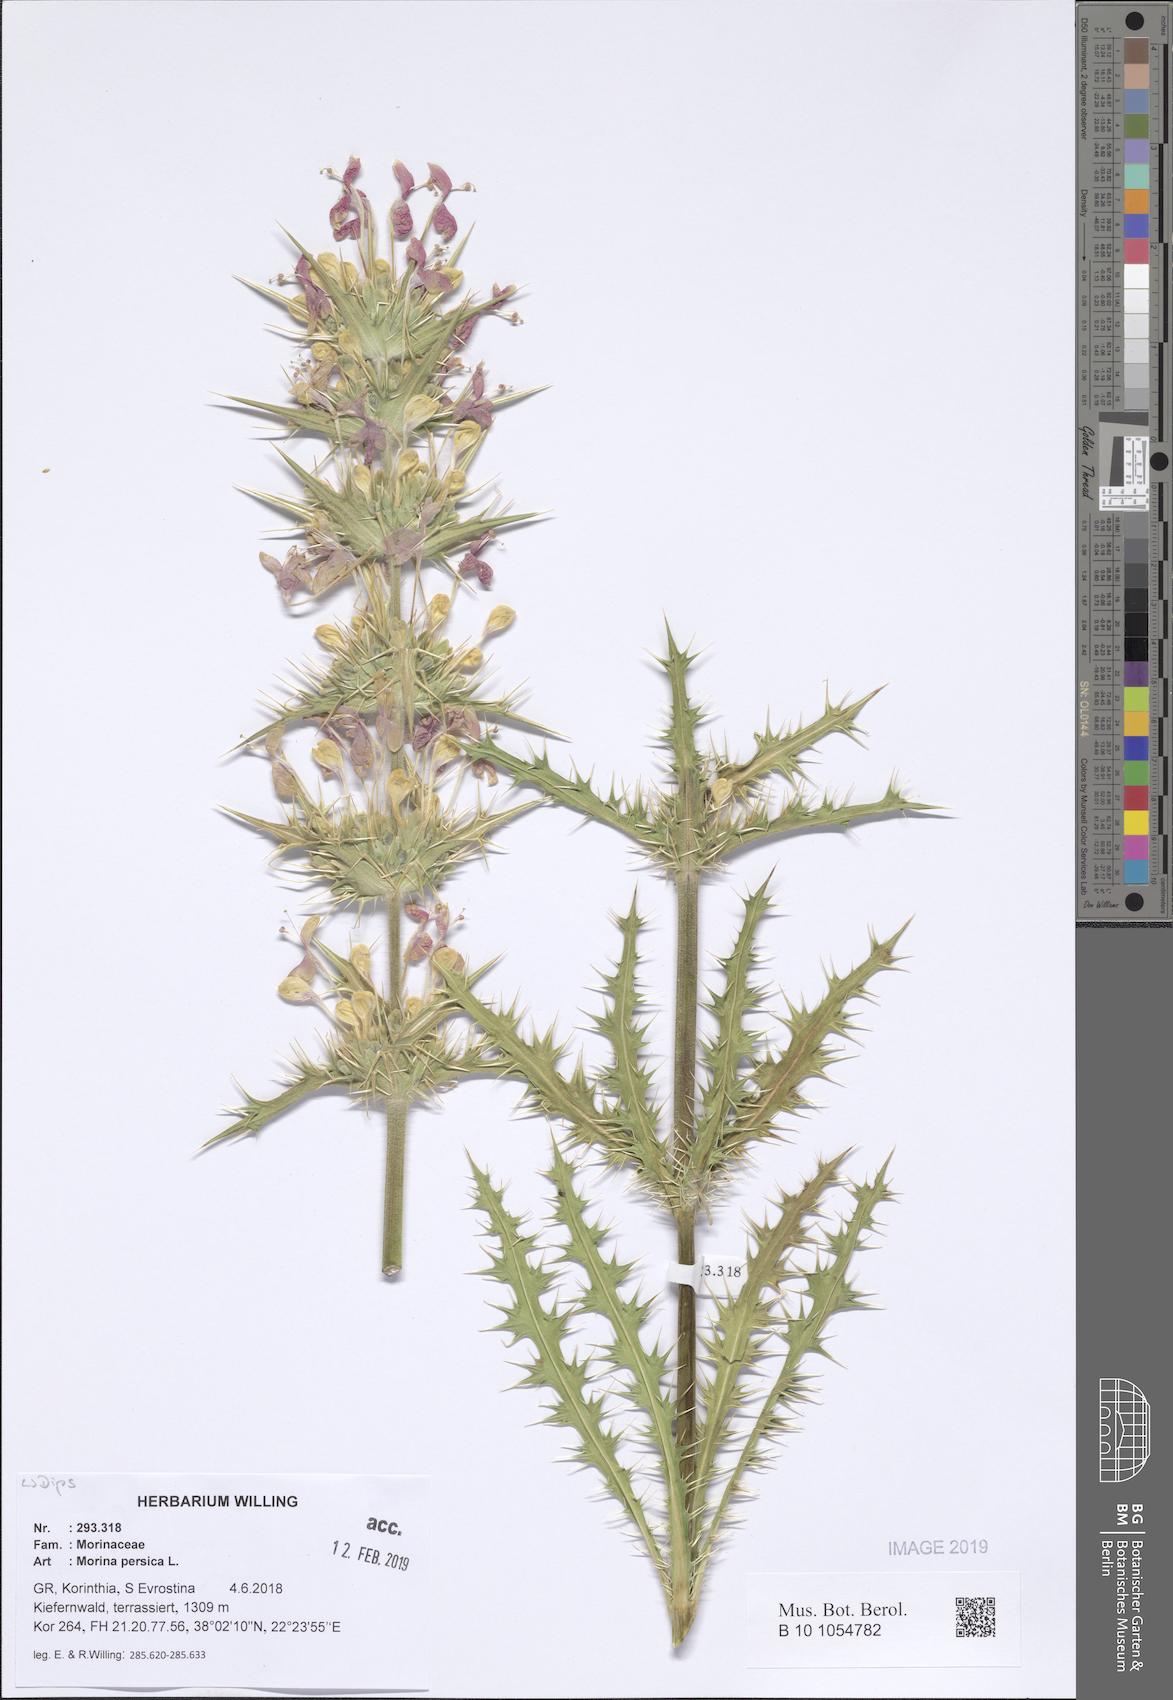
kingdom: Plantae
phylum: Tracheophyta
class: Magnoliopsida
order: Dipsacales
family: Caprifoliaceae
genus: Morina
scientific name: Morina persica
